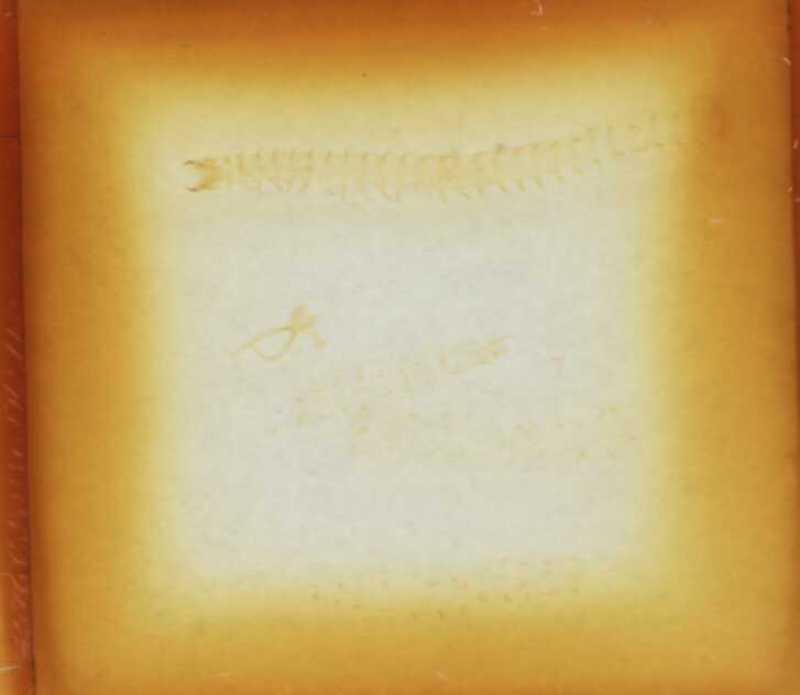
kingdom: Animalia
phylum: Arthropoda
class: Chilopoda
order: Geophilomorpha
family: Geophilidae
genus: Stenotaenia
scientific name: Stenotaenia sorrentina
